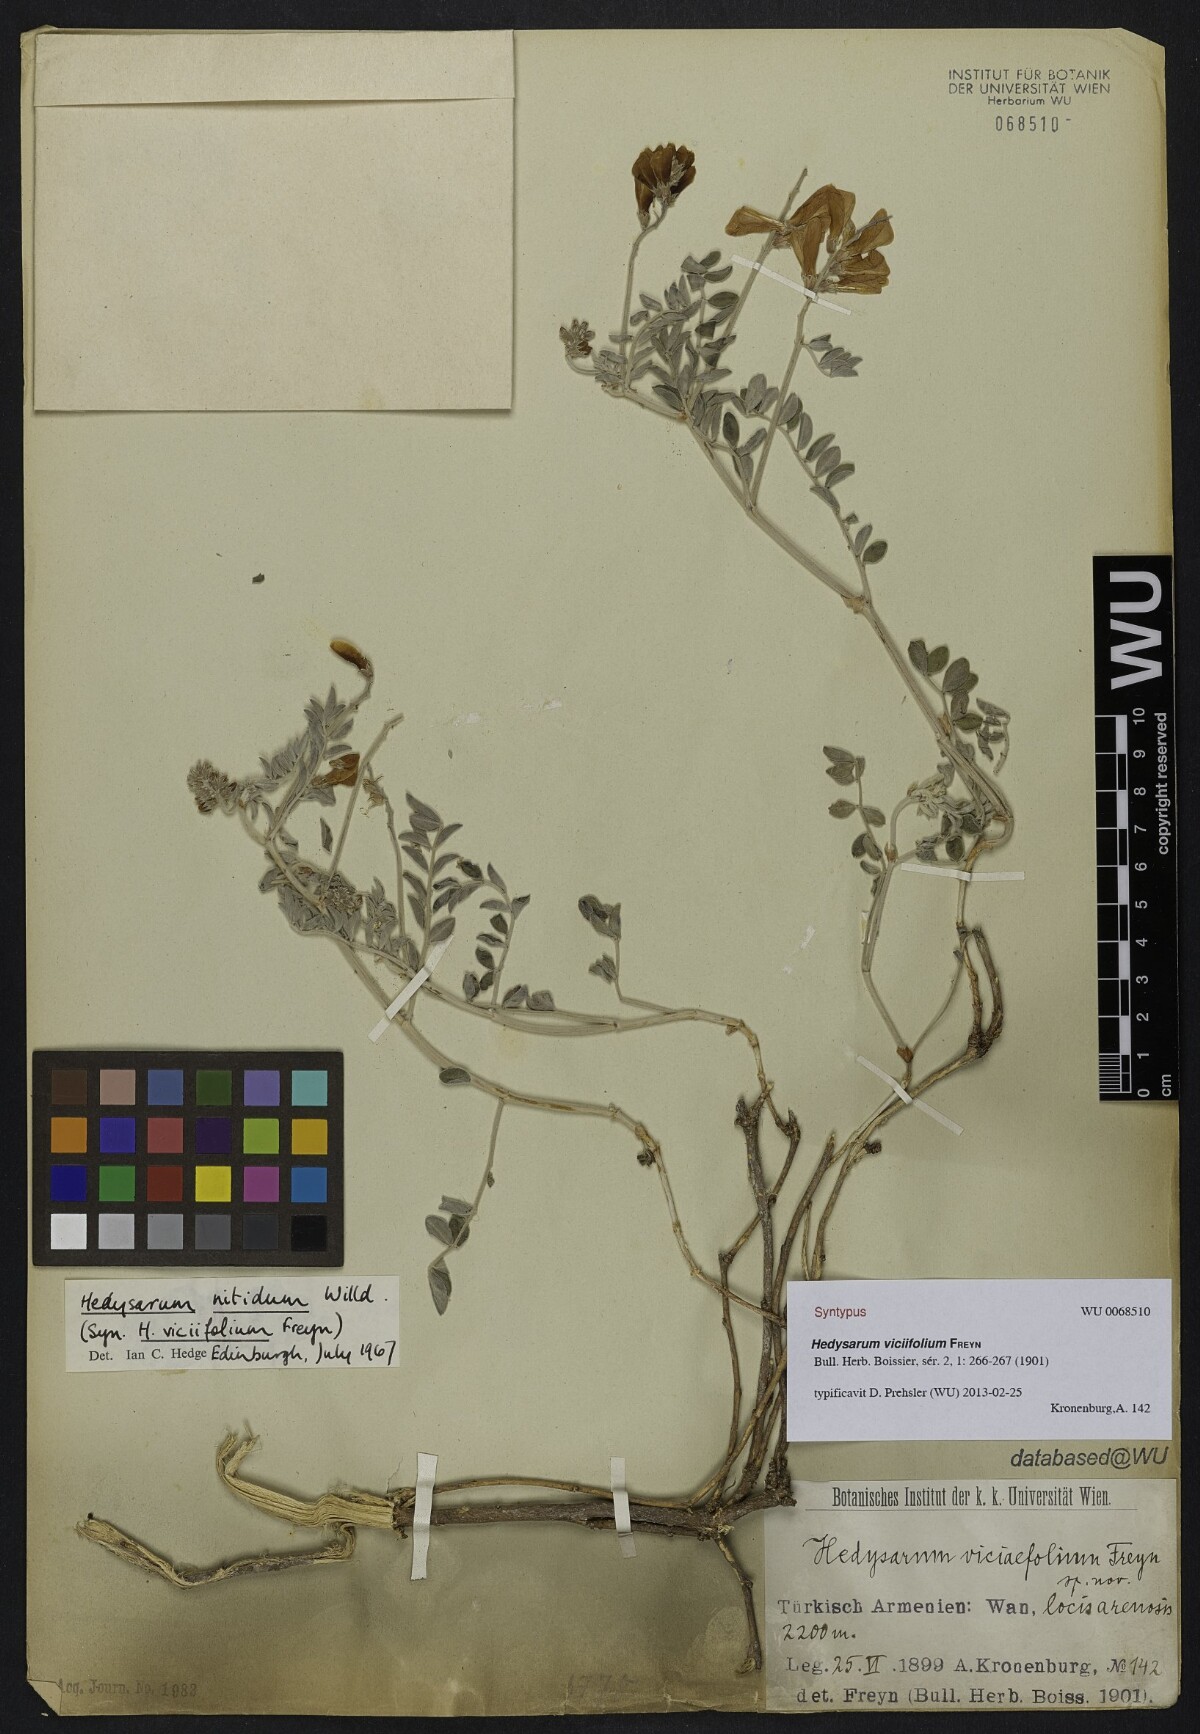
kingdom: Plantae
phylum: Tracheophyta
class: Magnoliopsida
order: Fabales
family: Fabaceae
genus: Hedysarum
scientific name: Hedysarum nitidum
